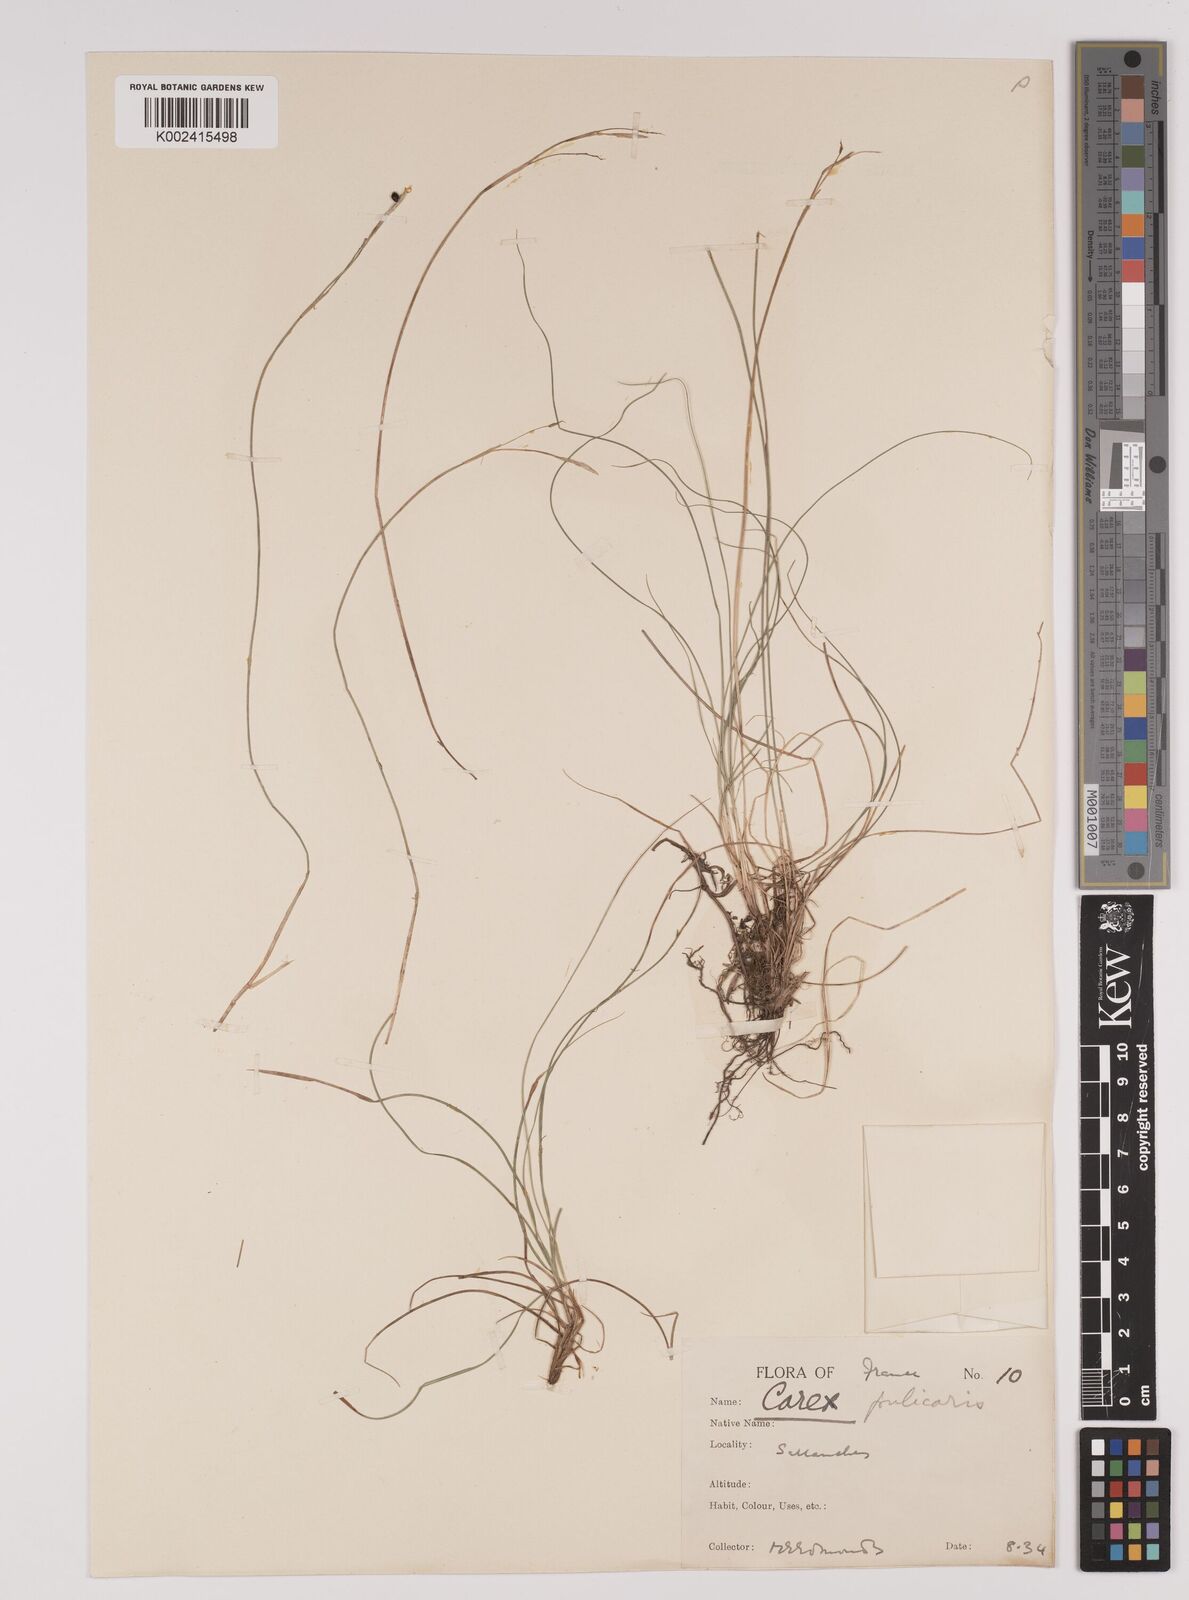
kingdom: Plantae
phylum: Tracheophyta
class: Liliopsida
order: Poales
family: Cyperaceae
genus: Carex
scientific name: Carex pulicaris
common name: Flea sedge
